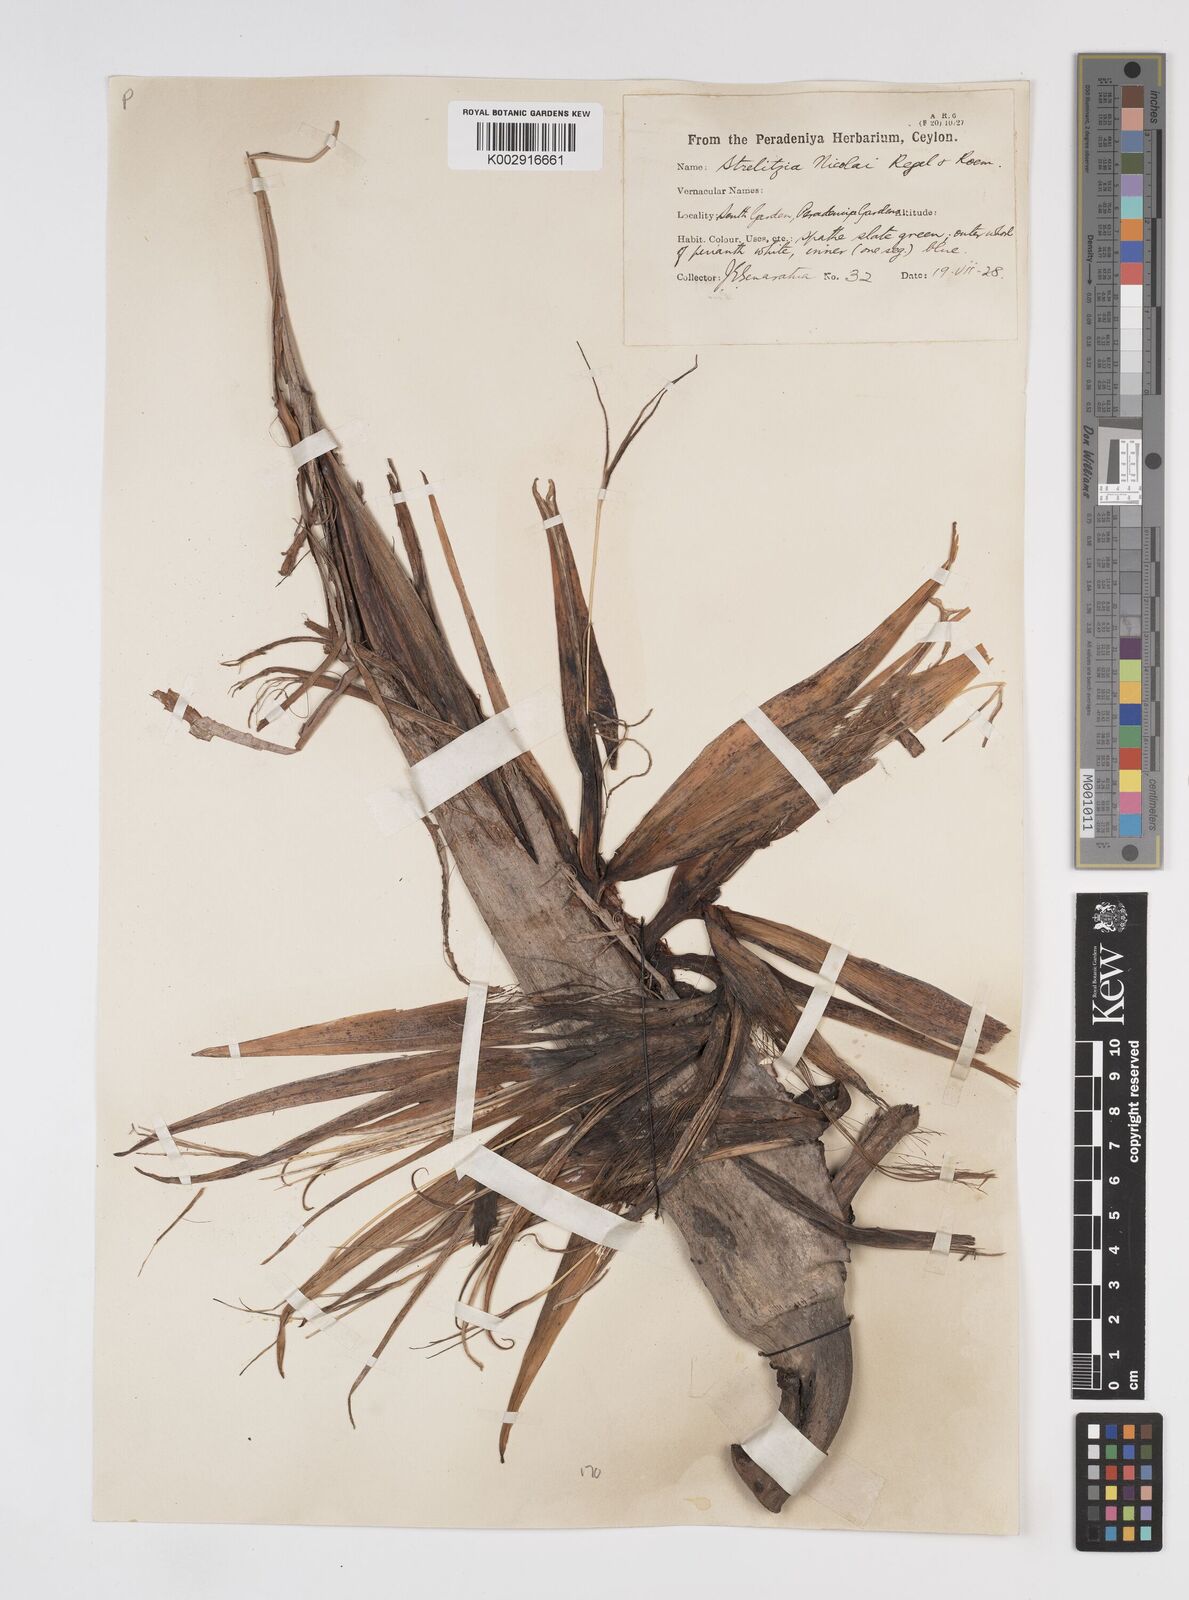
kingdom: Plantae
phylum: Tracheophyta
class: Liliopsida
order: Zingiberales
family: Strelitziaceae
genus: Strelitzia
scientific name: Strelitzia nicolai
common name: Bird-of-paradise tree
